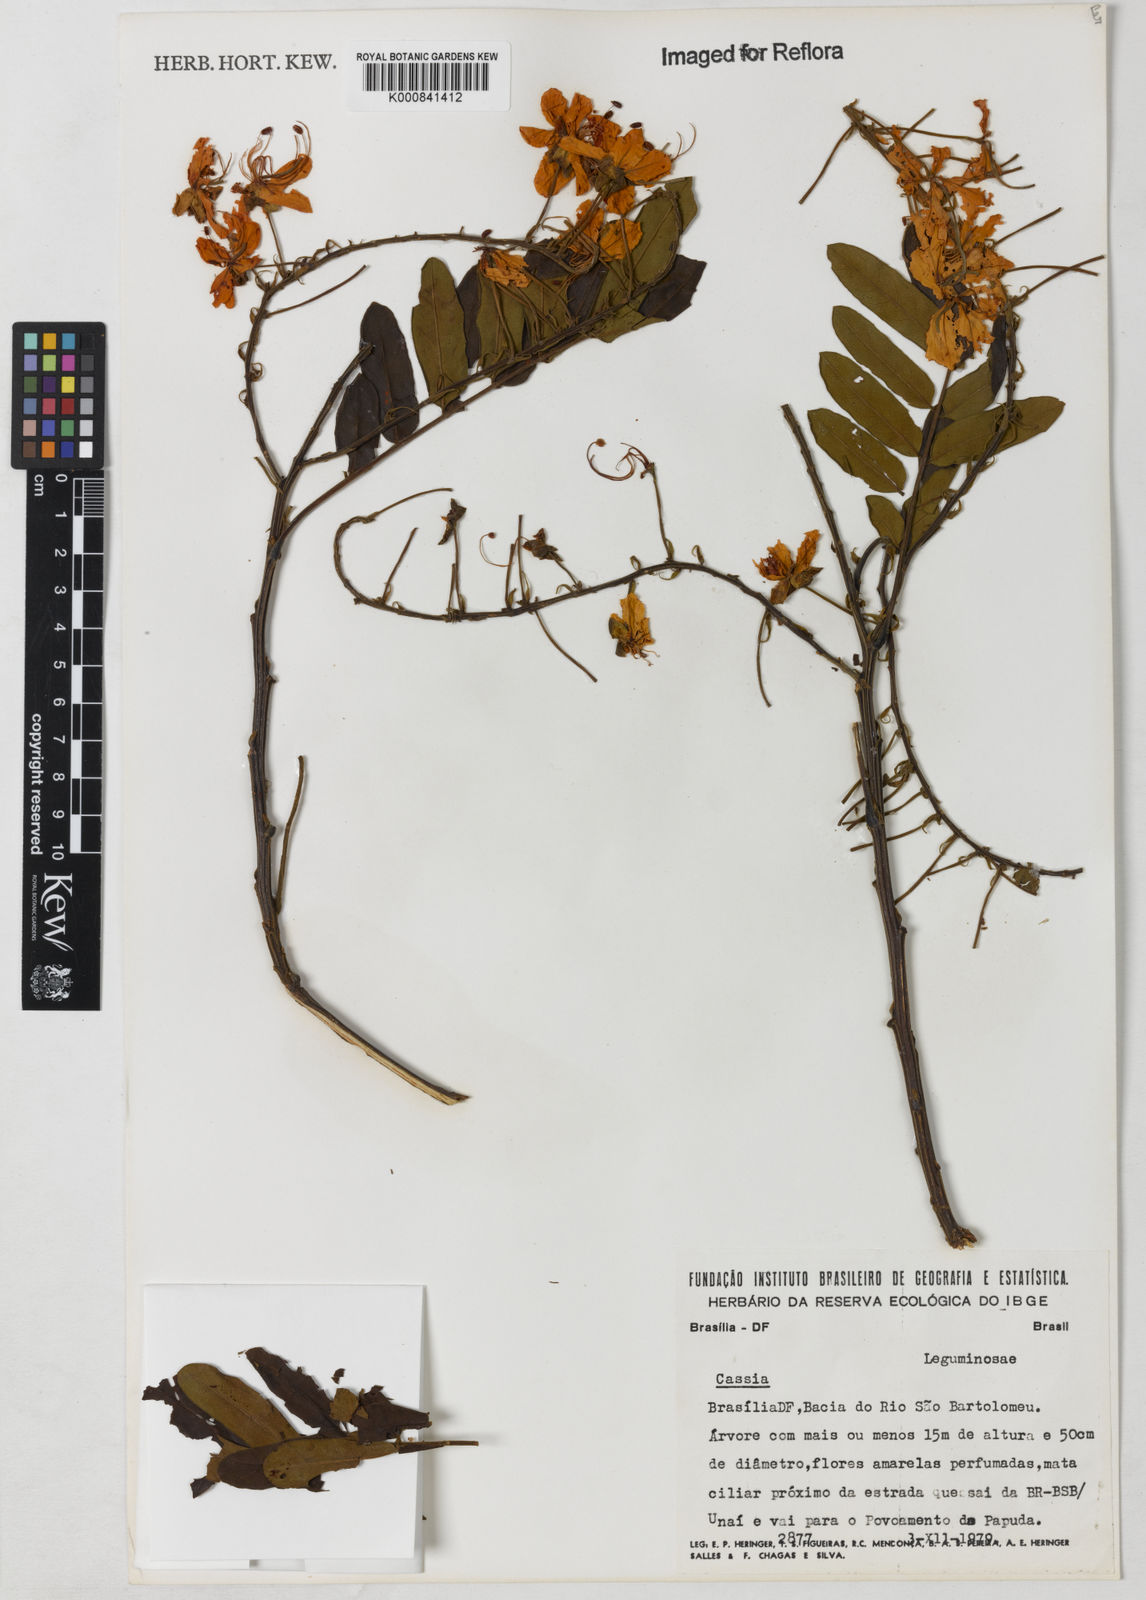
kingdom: Plantae
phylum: Tracheophyta
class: Magnoliopsida
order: Fabales
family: Fabaceae
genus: Cassia
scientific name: Cassia
